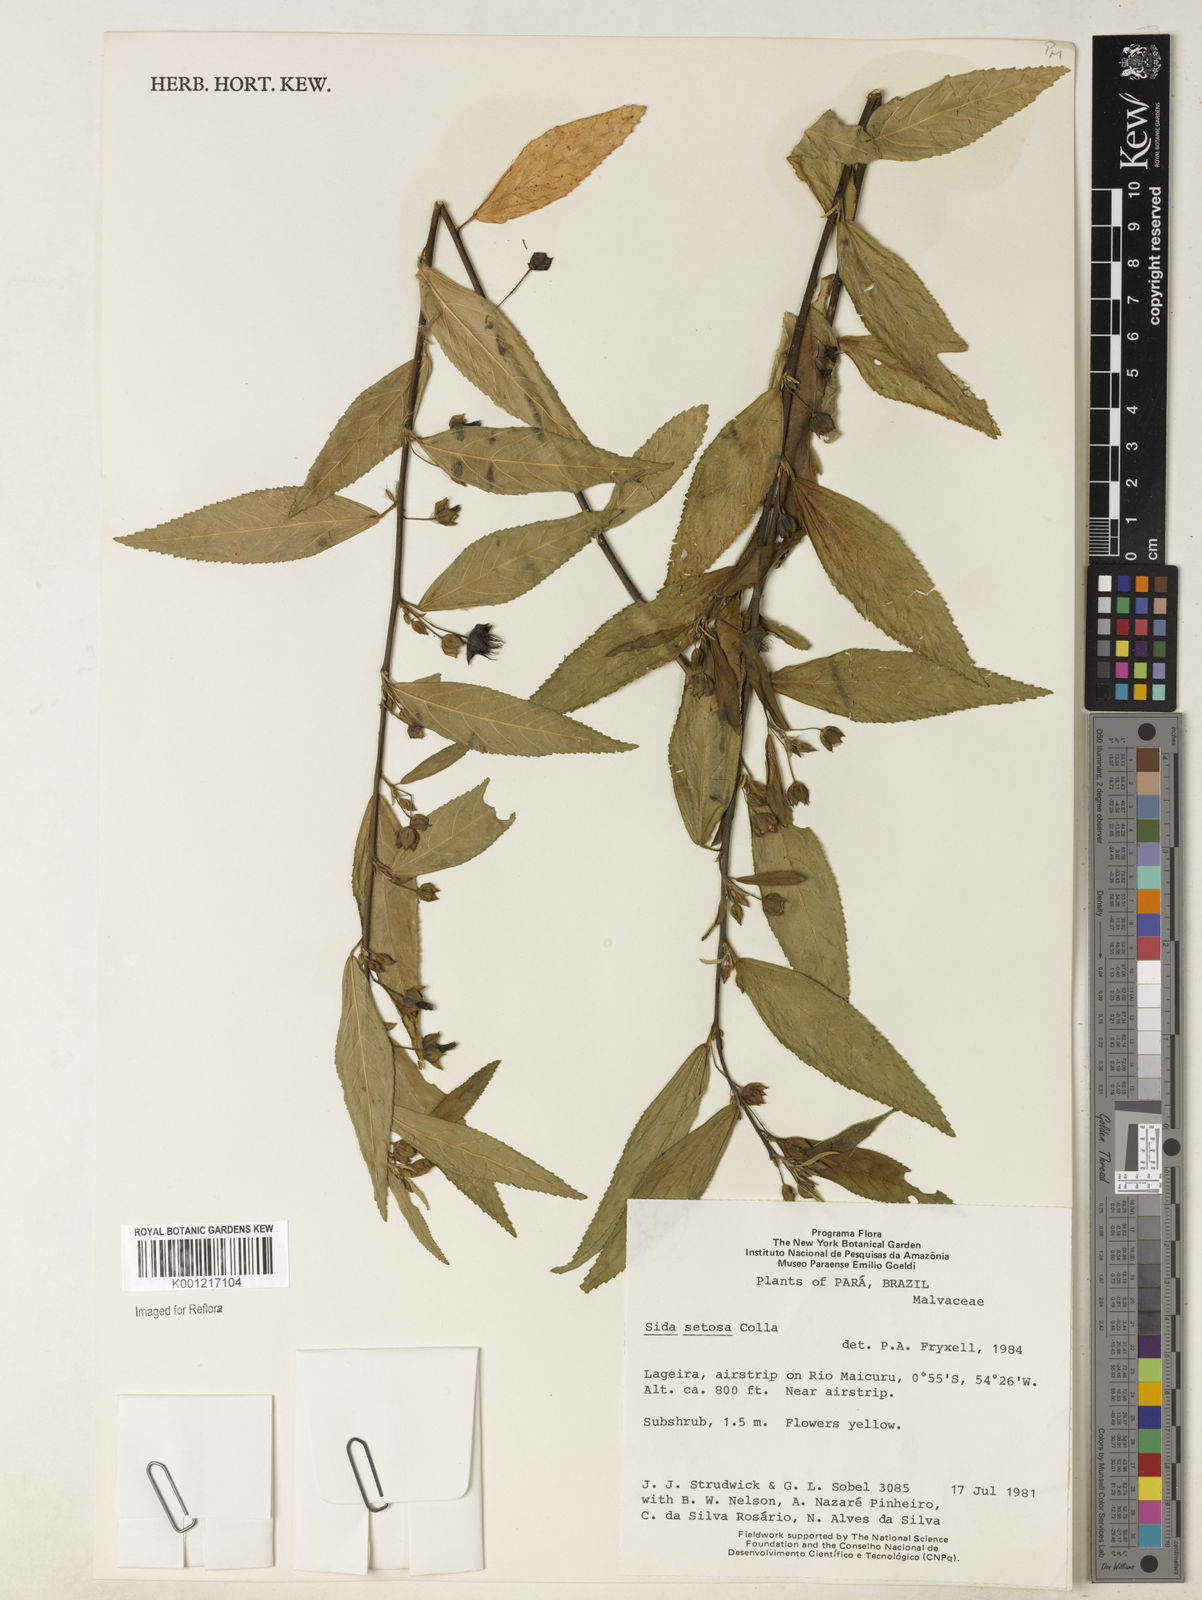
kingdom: Plantae
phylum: Tracheophyta
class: Magnoliopsida
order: Malvales
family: Malvaceae
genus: Sida
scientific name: Sida
